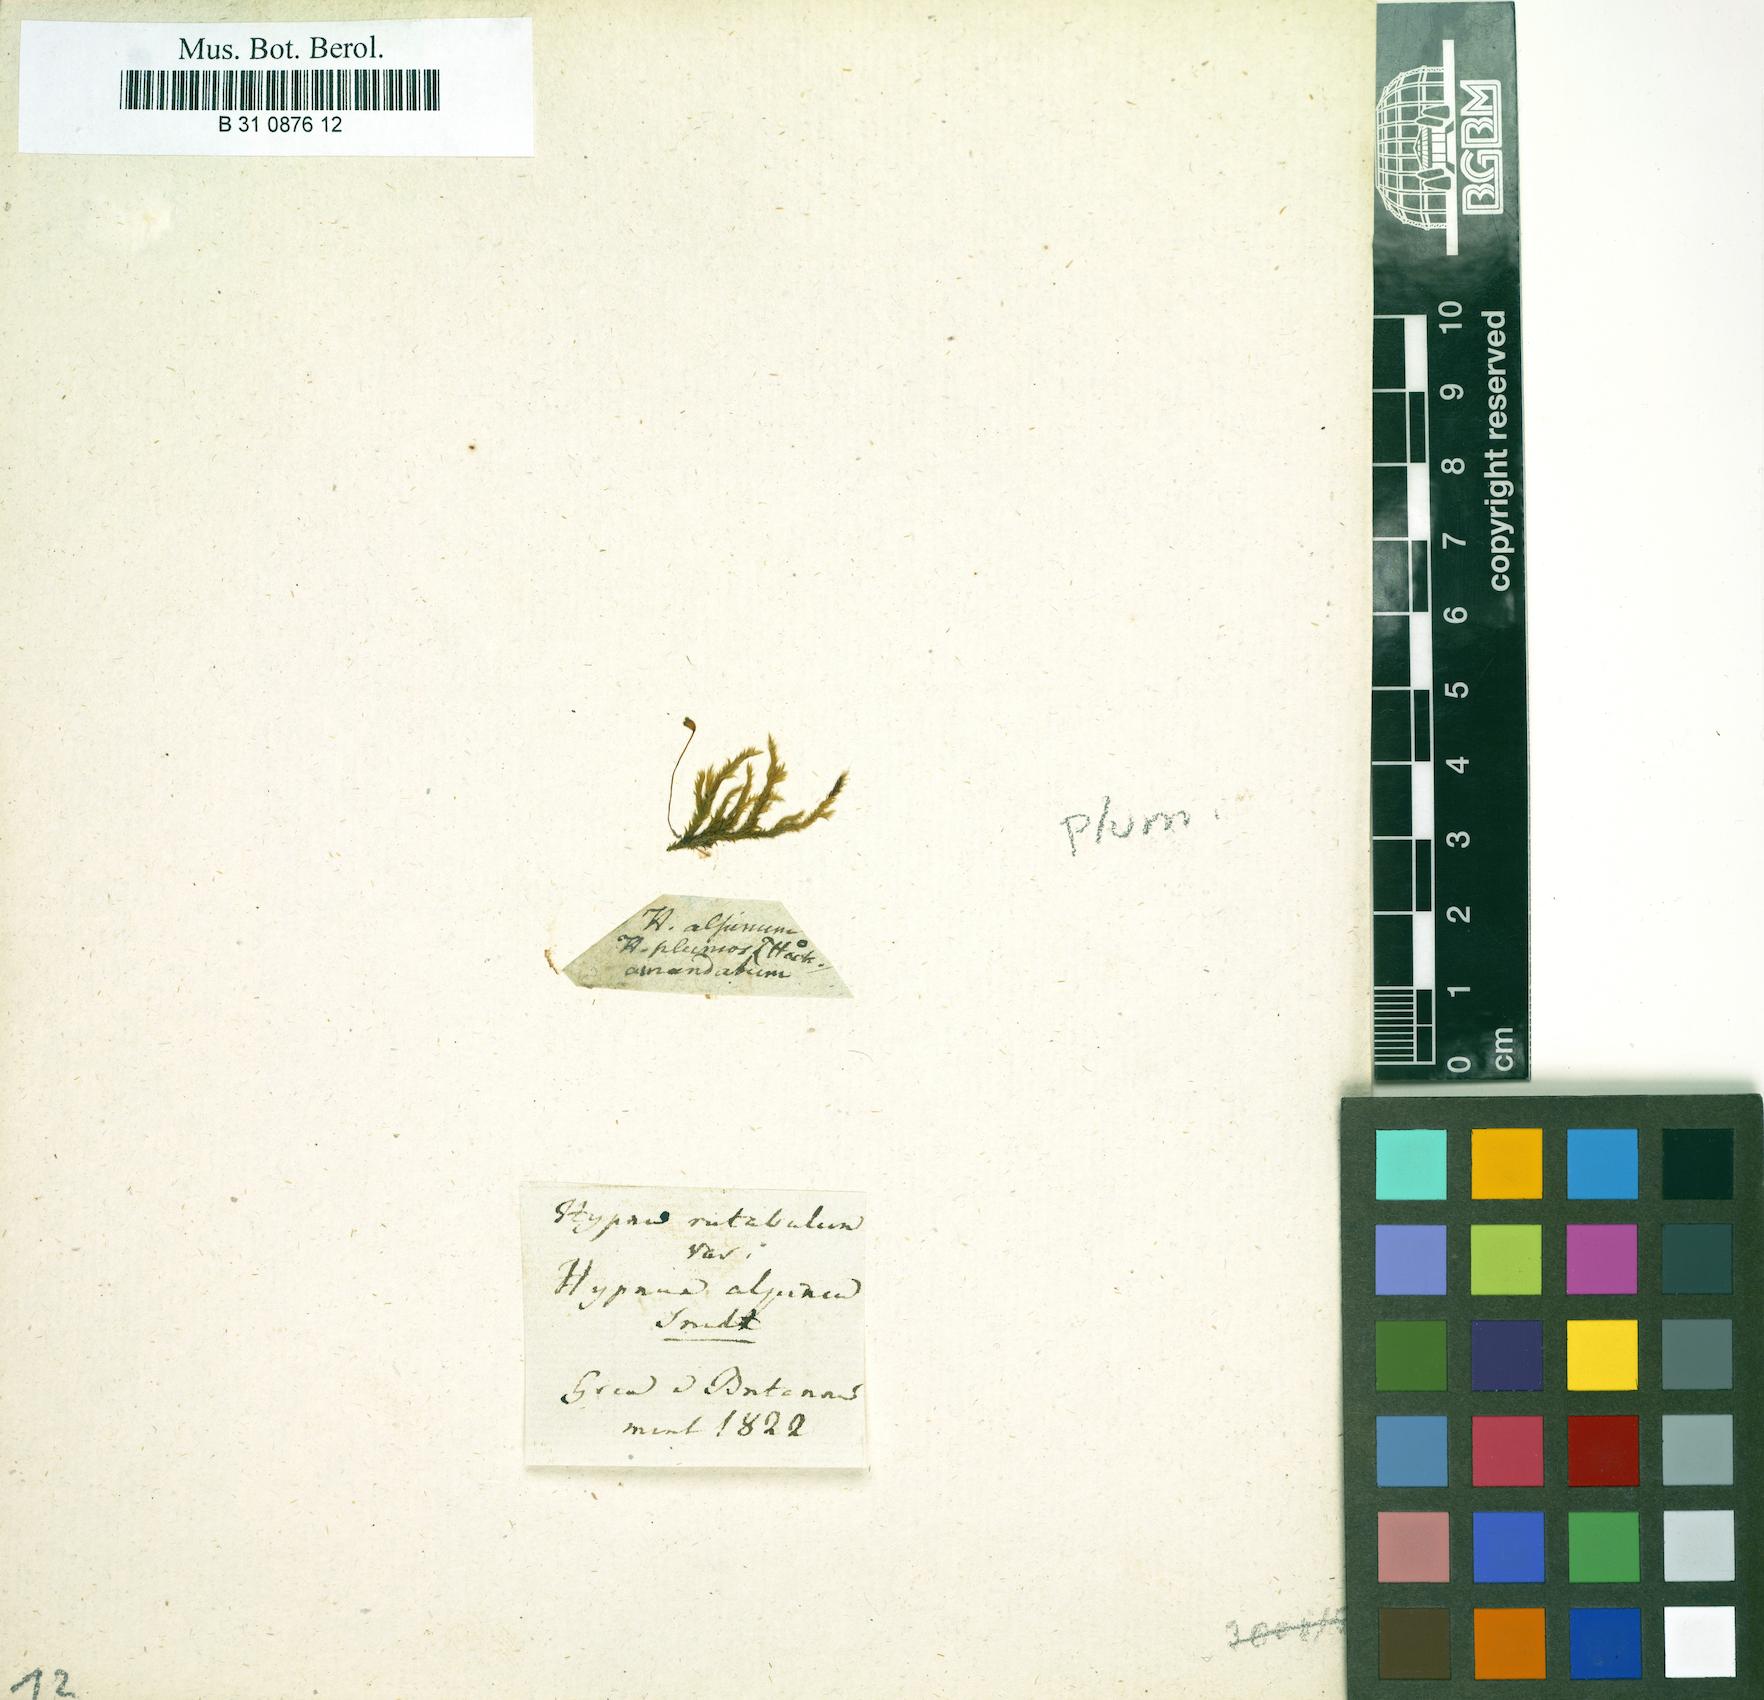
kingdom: Plantae
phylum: Bryophyta
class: Bryopsida
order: Hypnales
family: Brachytheciaceae
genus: Brachythecium
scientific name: Brachythecium rutabulum
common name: Rough-stalked feather-moss
